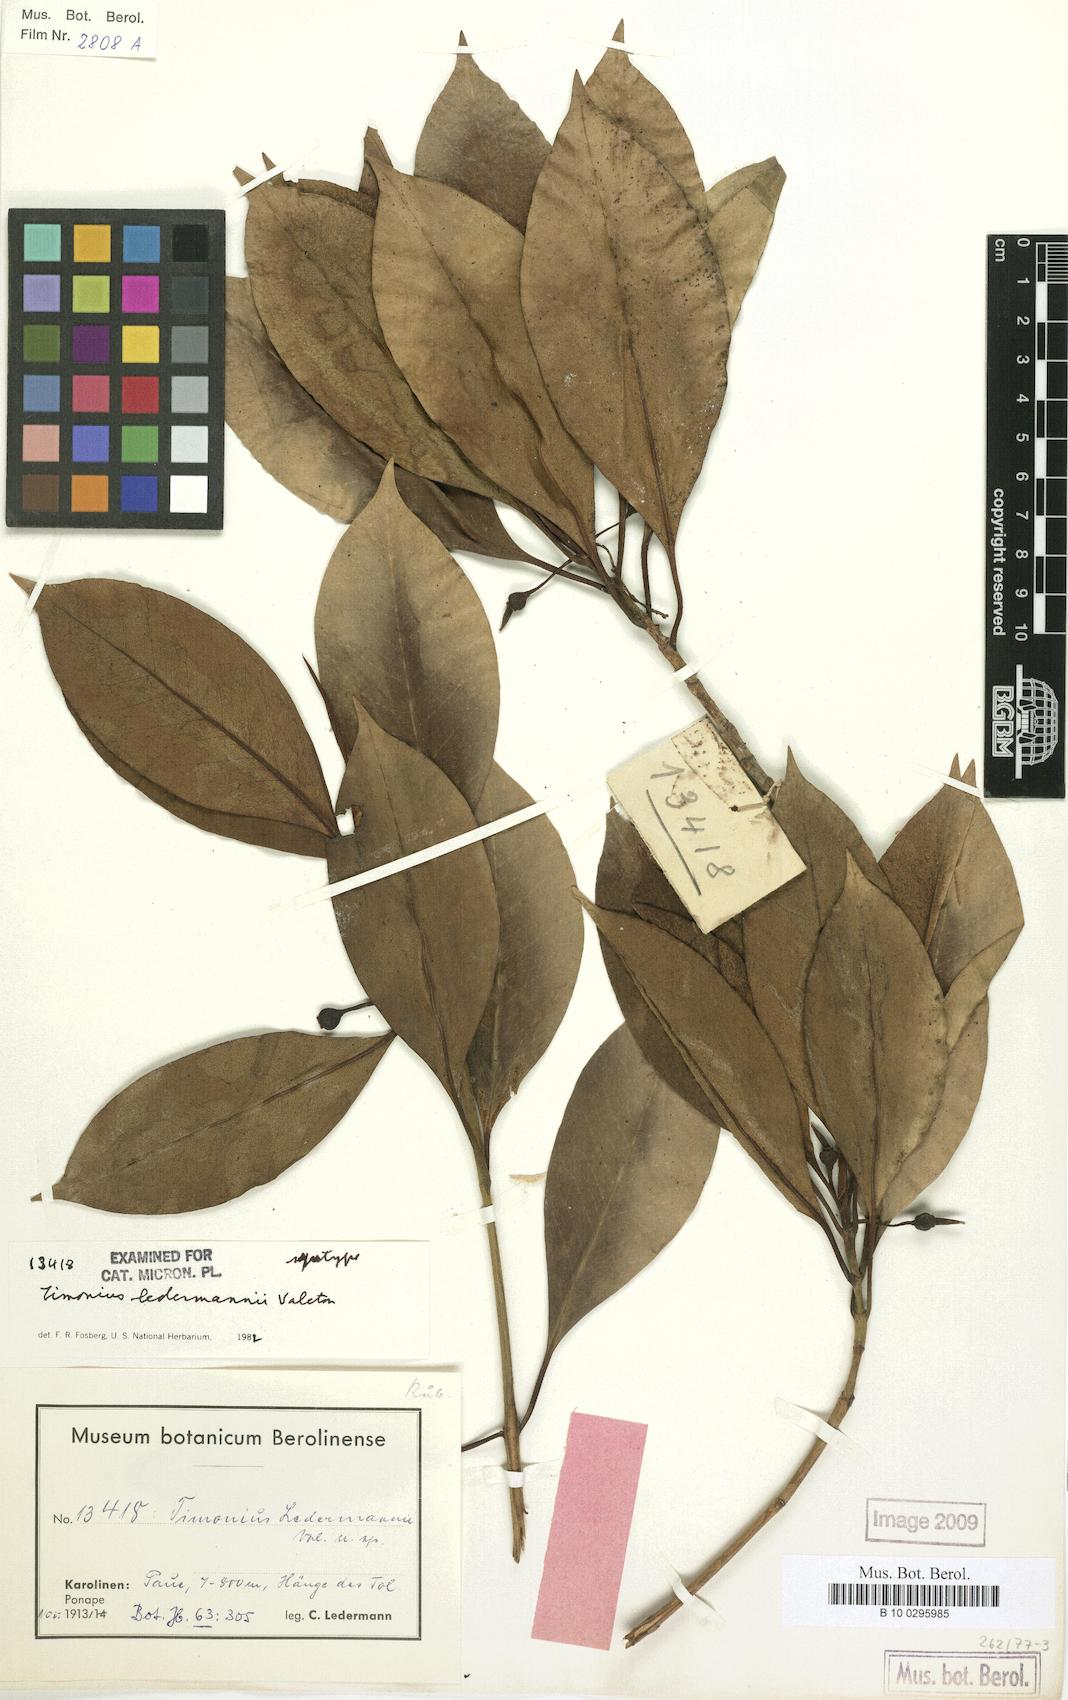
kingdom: Plantae
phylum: Tracheophyta
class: Magnoliopsida
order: Gentianales
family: Rubiaceae
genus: Timonius
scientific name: Timonius ledermannii
